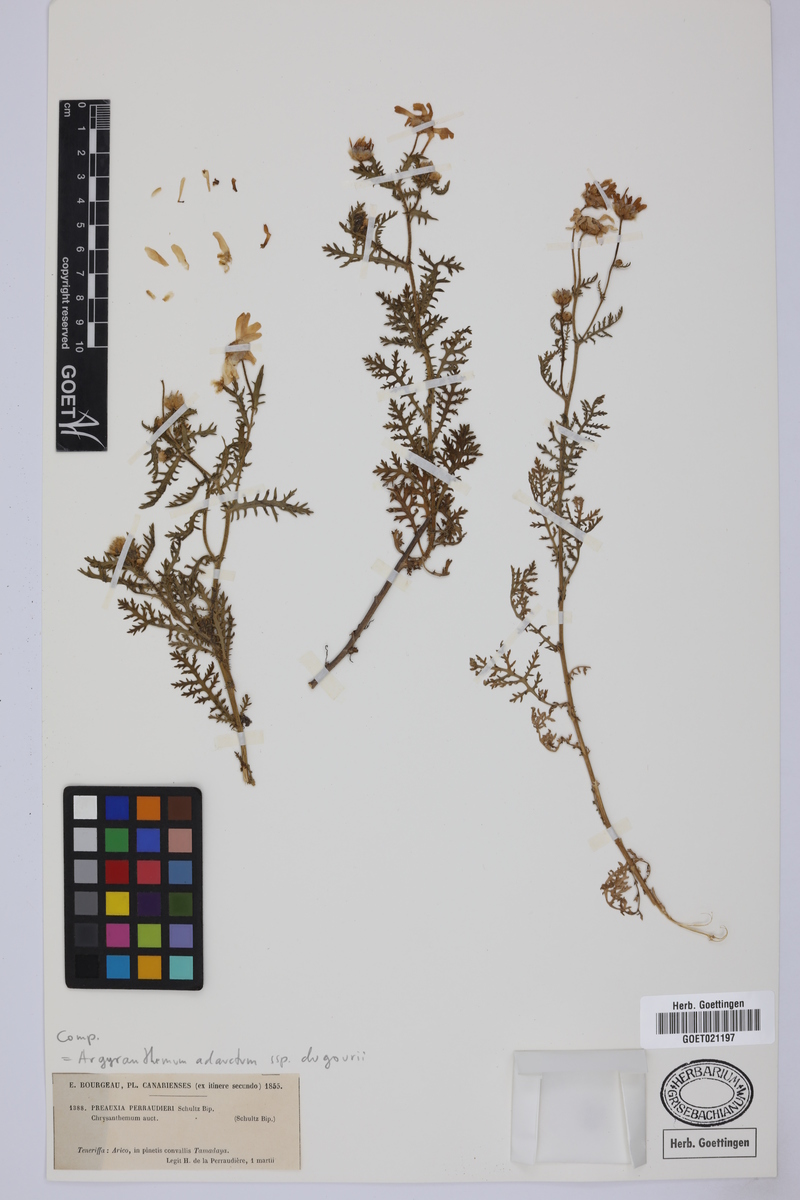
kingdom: Plantae
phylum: Tracheophyta
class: Magnoliopsida
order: Asterales
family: Asteraceae
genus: Argyranthemum
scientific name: Argyranthemum adauctum
